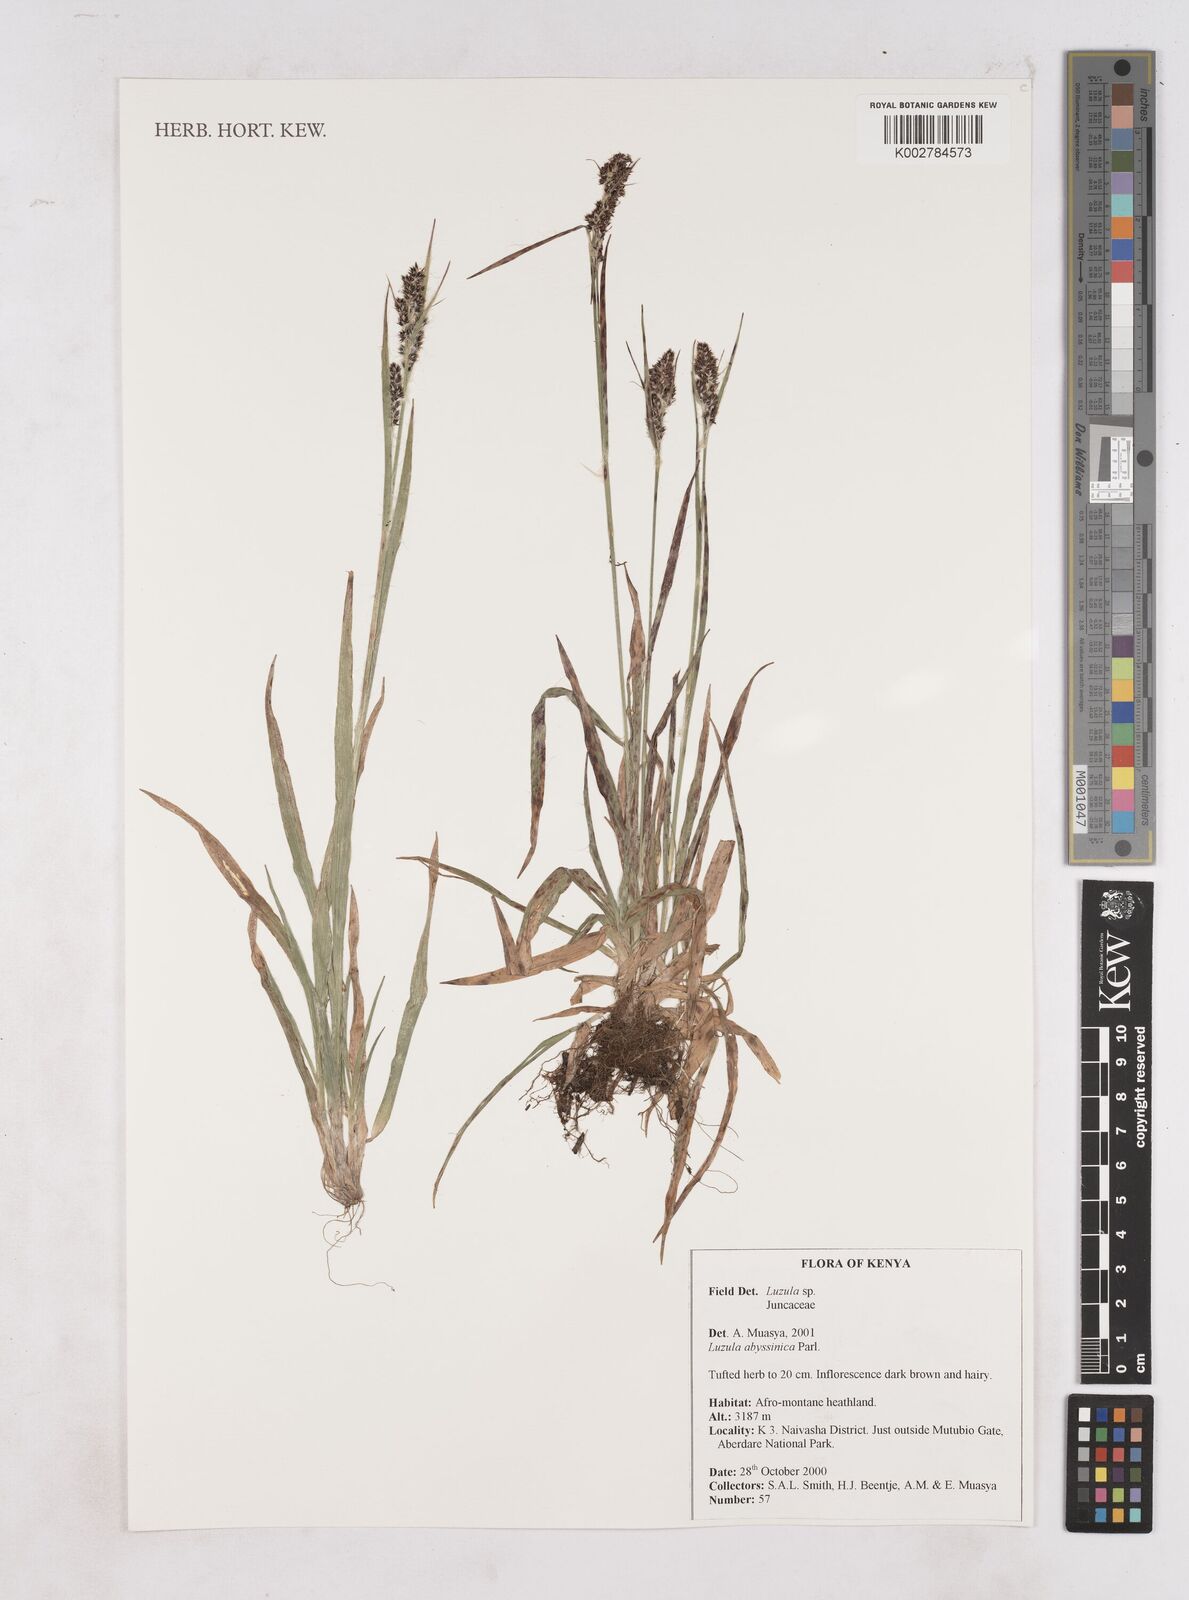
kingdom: Plantae
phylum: Tracheophyta
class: Liliopsida
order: Poales
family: Juncaceae
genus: Luzula
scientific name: Luzula
